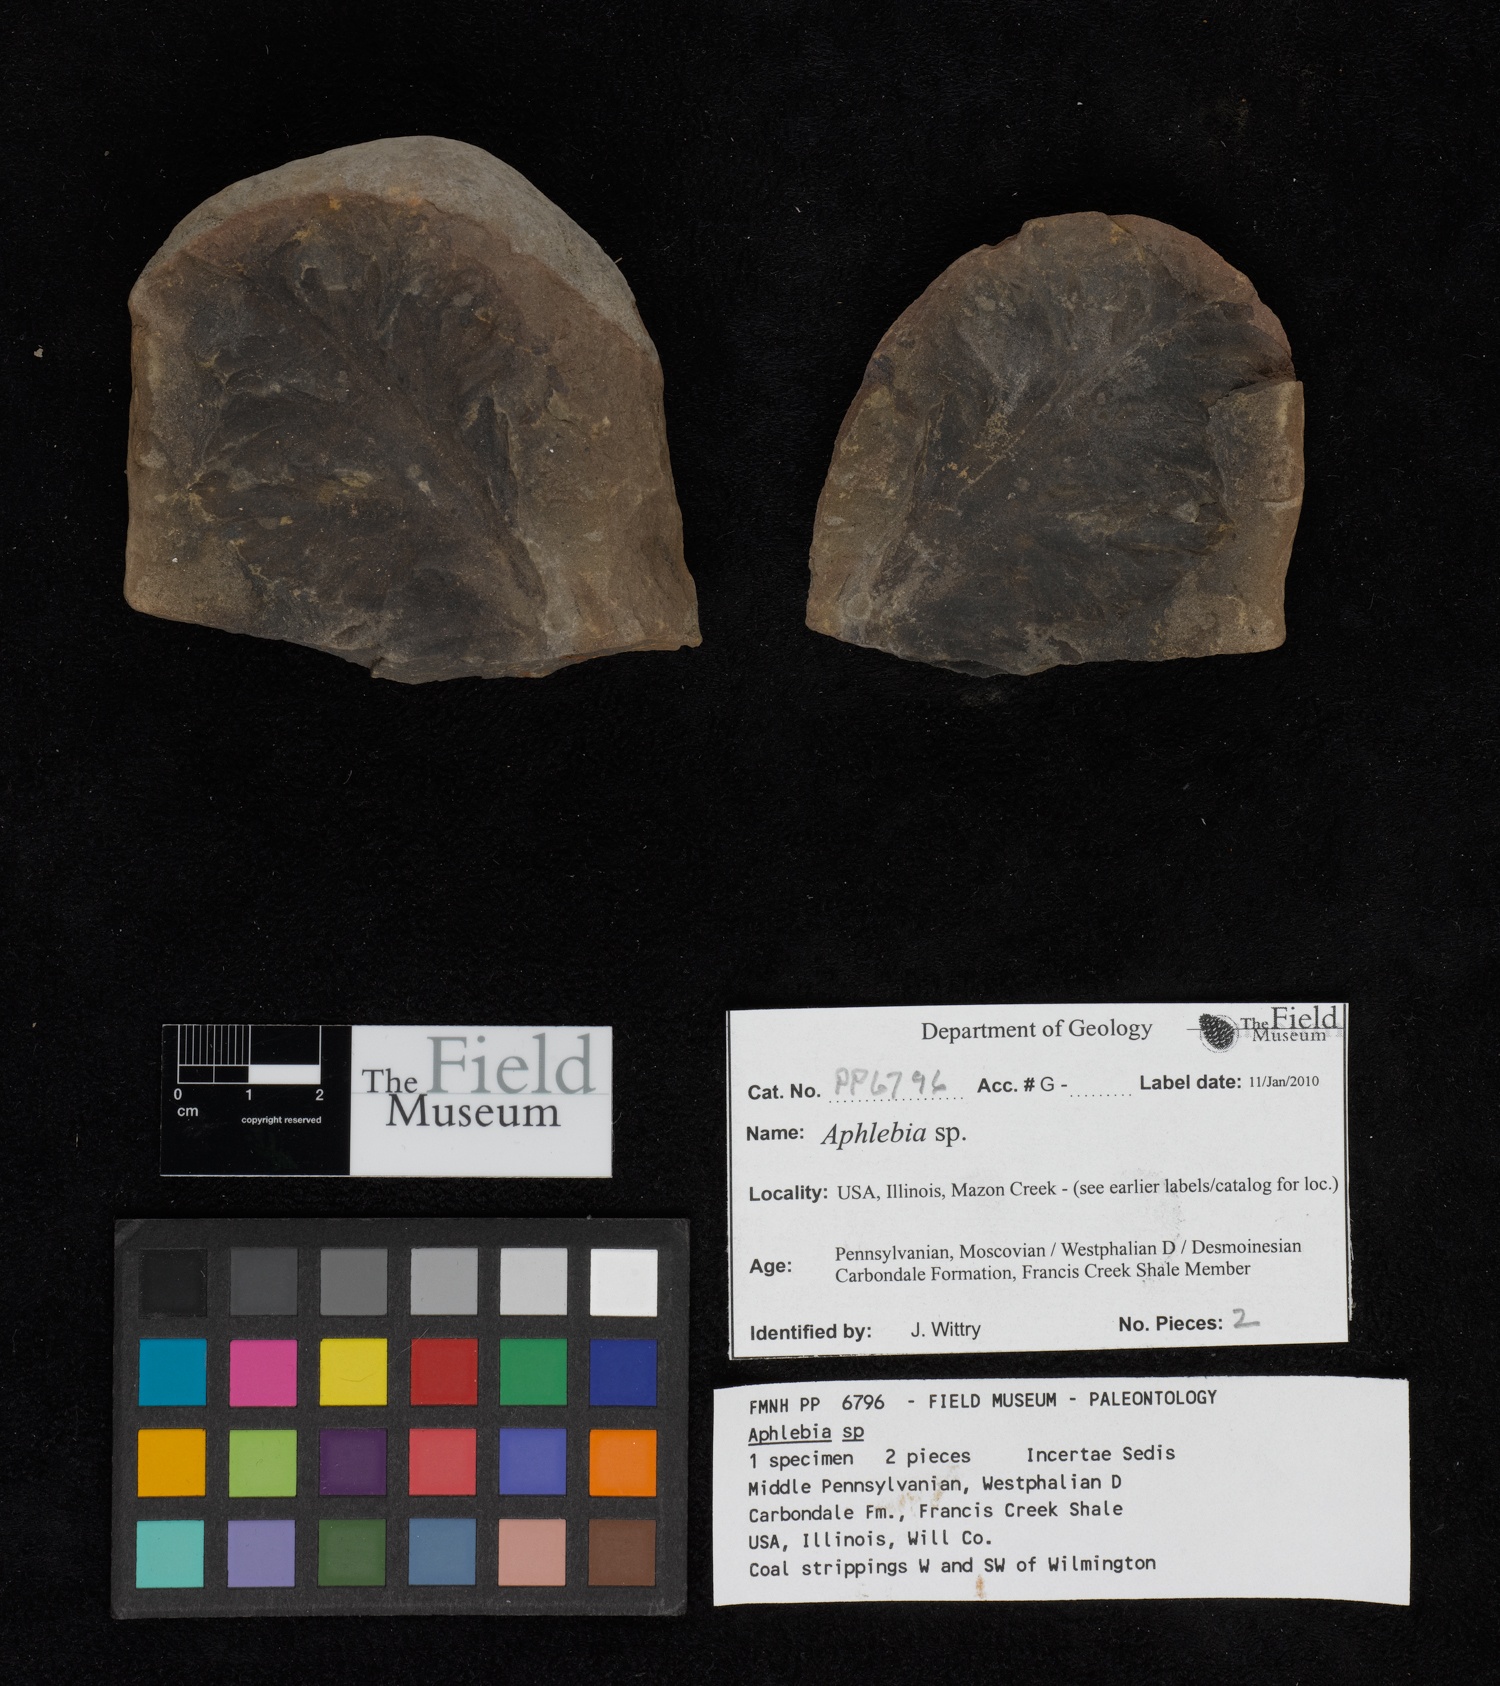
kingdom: Plantae
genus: Rhacophyllum
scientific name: Rhacophyllum
